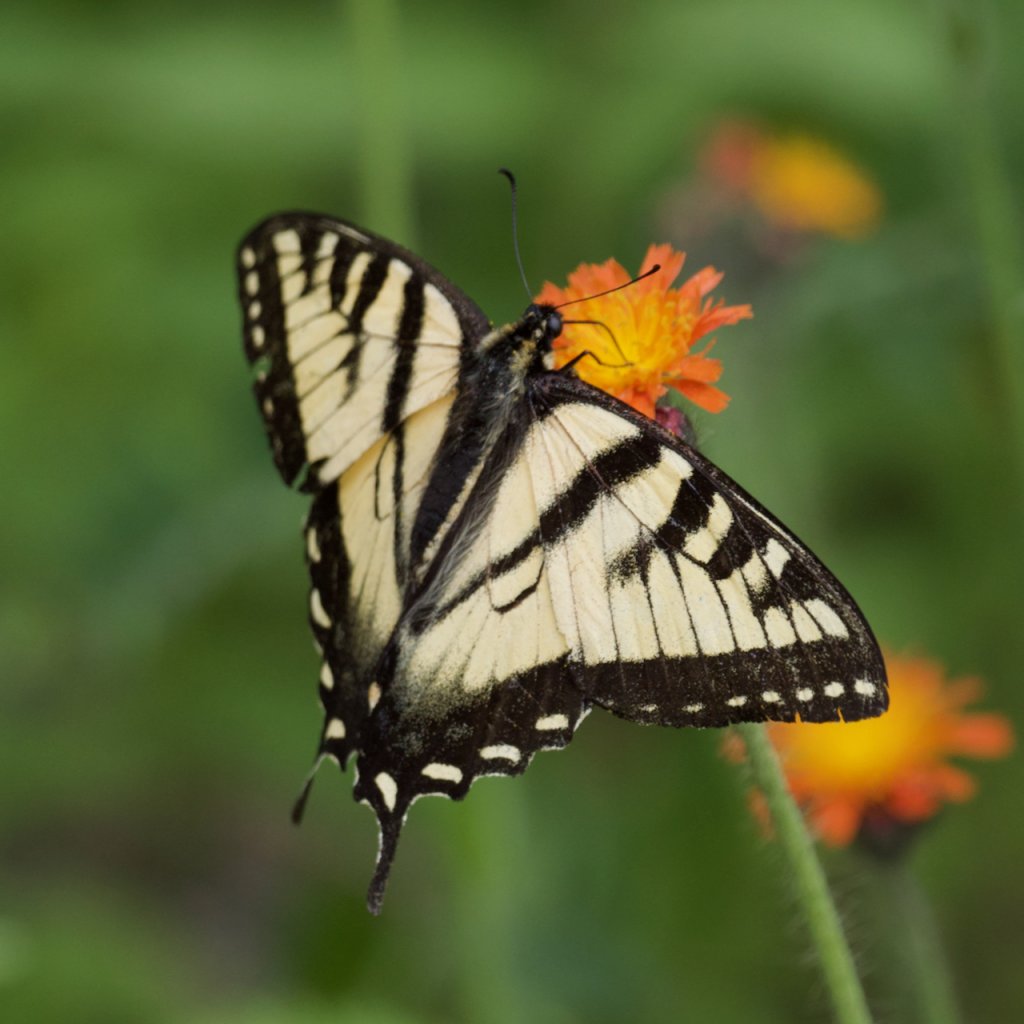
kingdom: Animalia
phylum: Arthropoda
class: Insecta
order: Lepidoptera
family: Papilionidae
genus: Pterourus
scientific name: Pterourus canadensis
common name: Canadian Tiger Swallowtail
